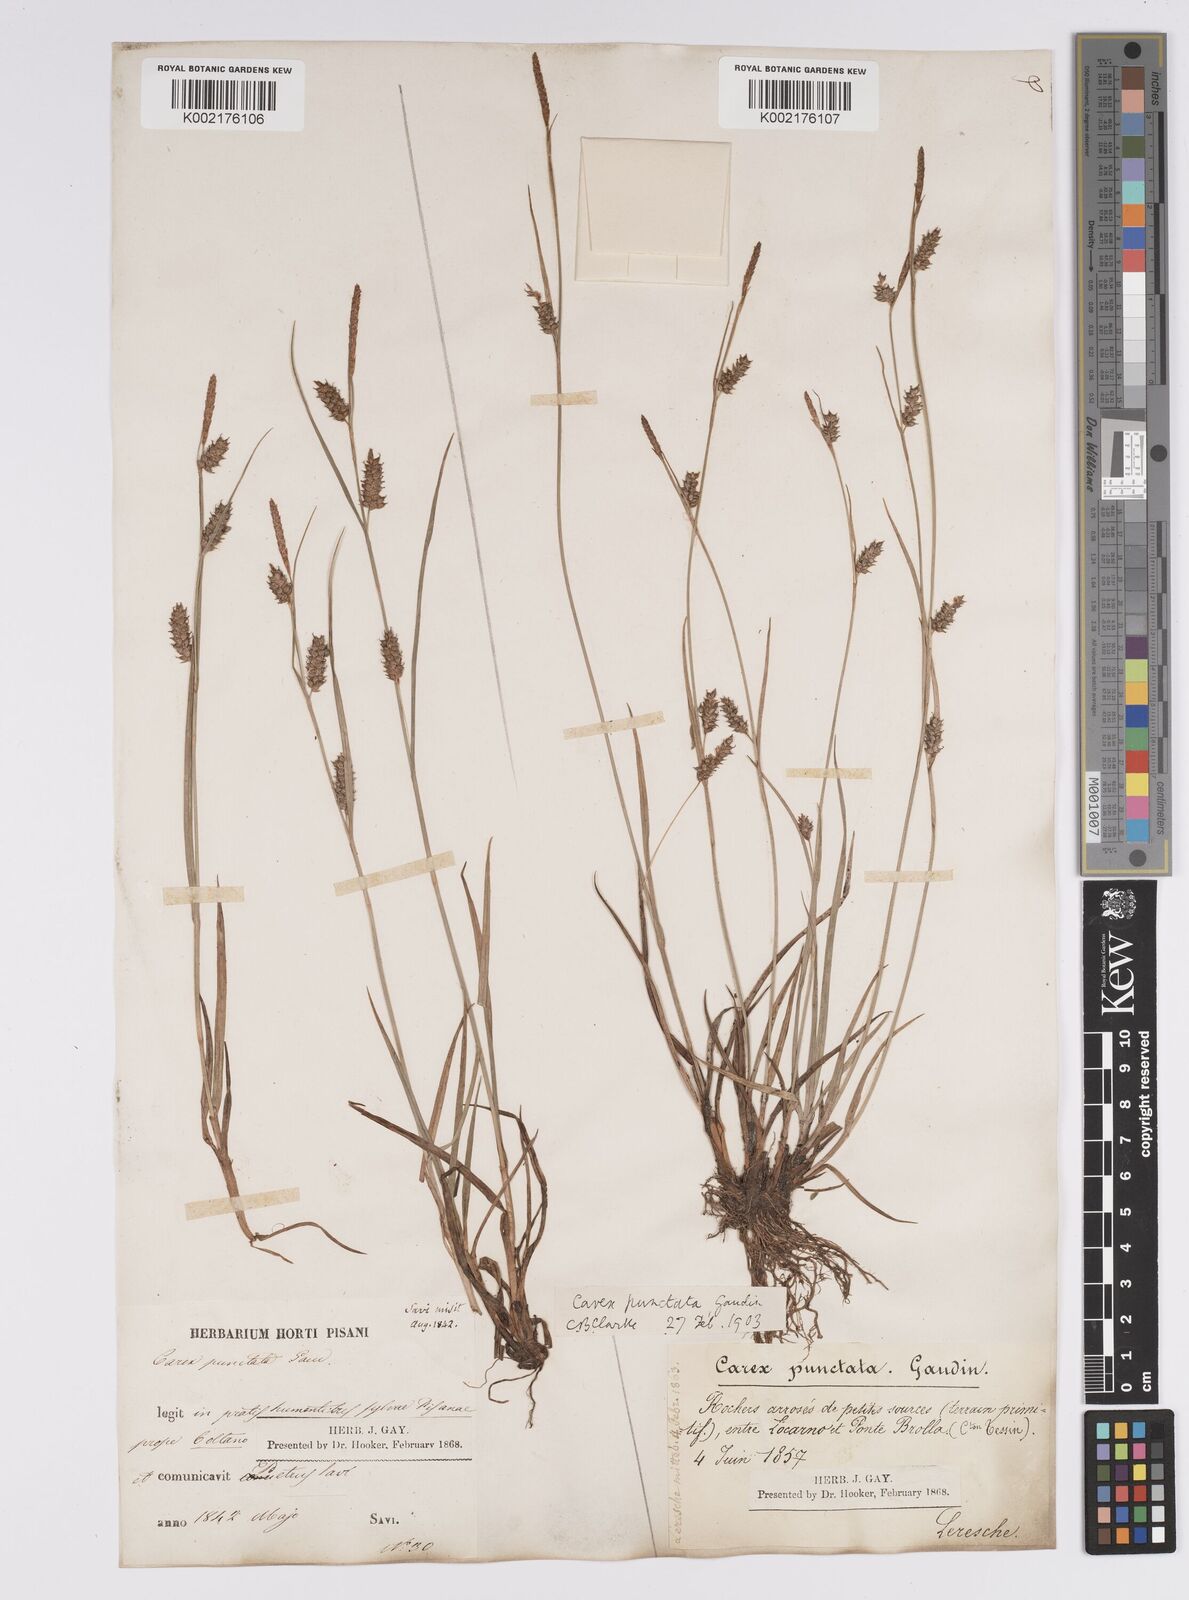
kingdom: Plantae
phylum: Tracheophyta
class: Liliopsida
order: Poales
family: Cyperaceae
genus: Carex
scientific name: Carex punctata
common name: Dotted sedge
